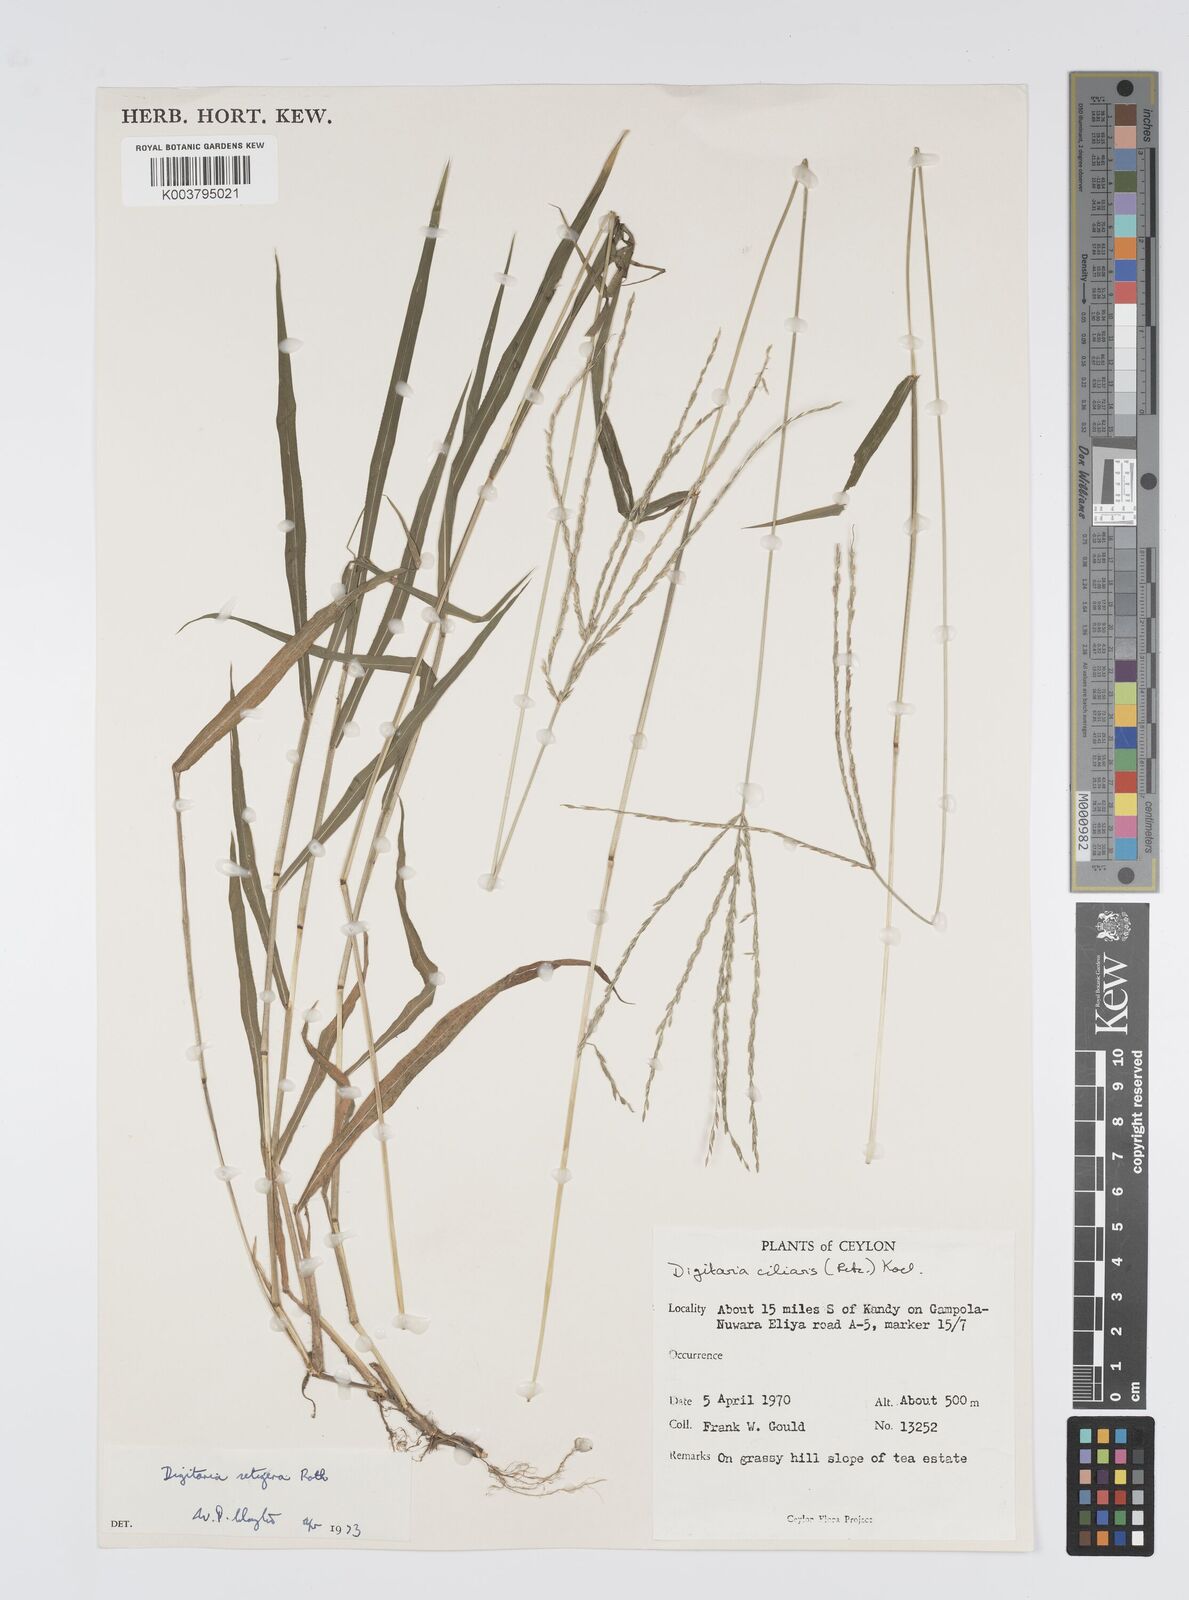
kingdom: Plantae
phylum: Tracheophyta
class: Liliopsida
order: Poales
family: Poaceae
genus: Digitaria
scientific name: Digitaria setigera
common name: East indian crabgrass
